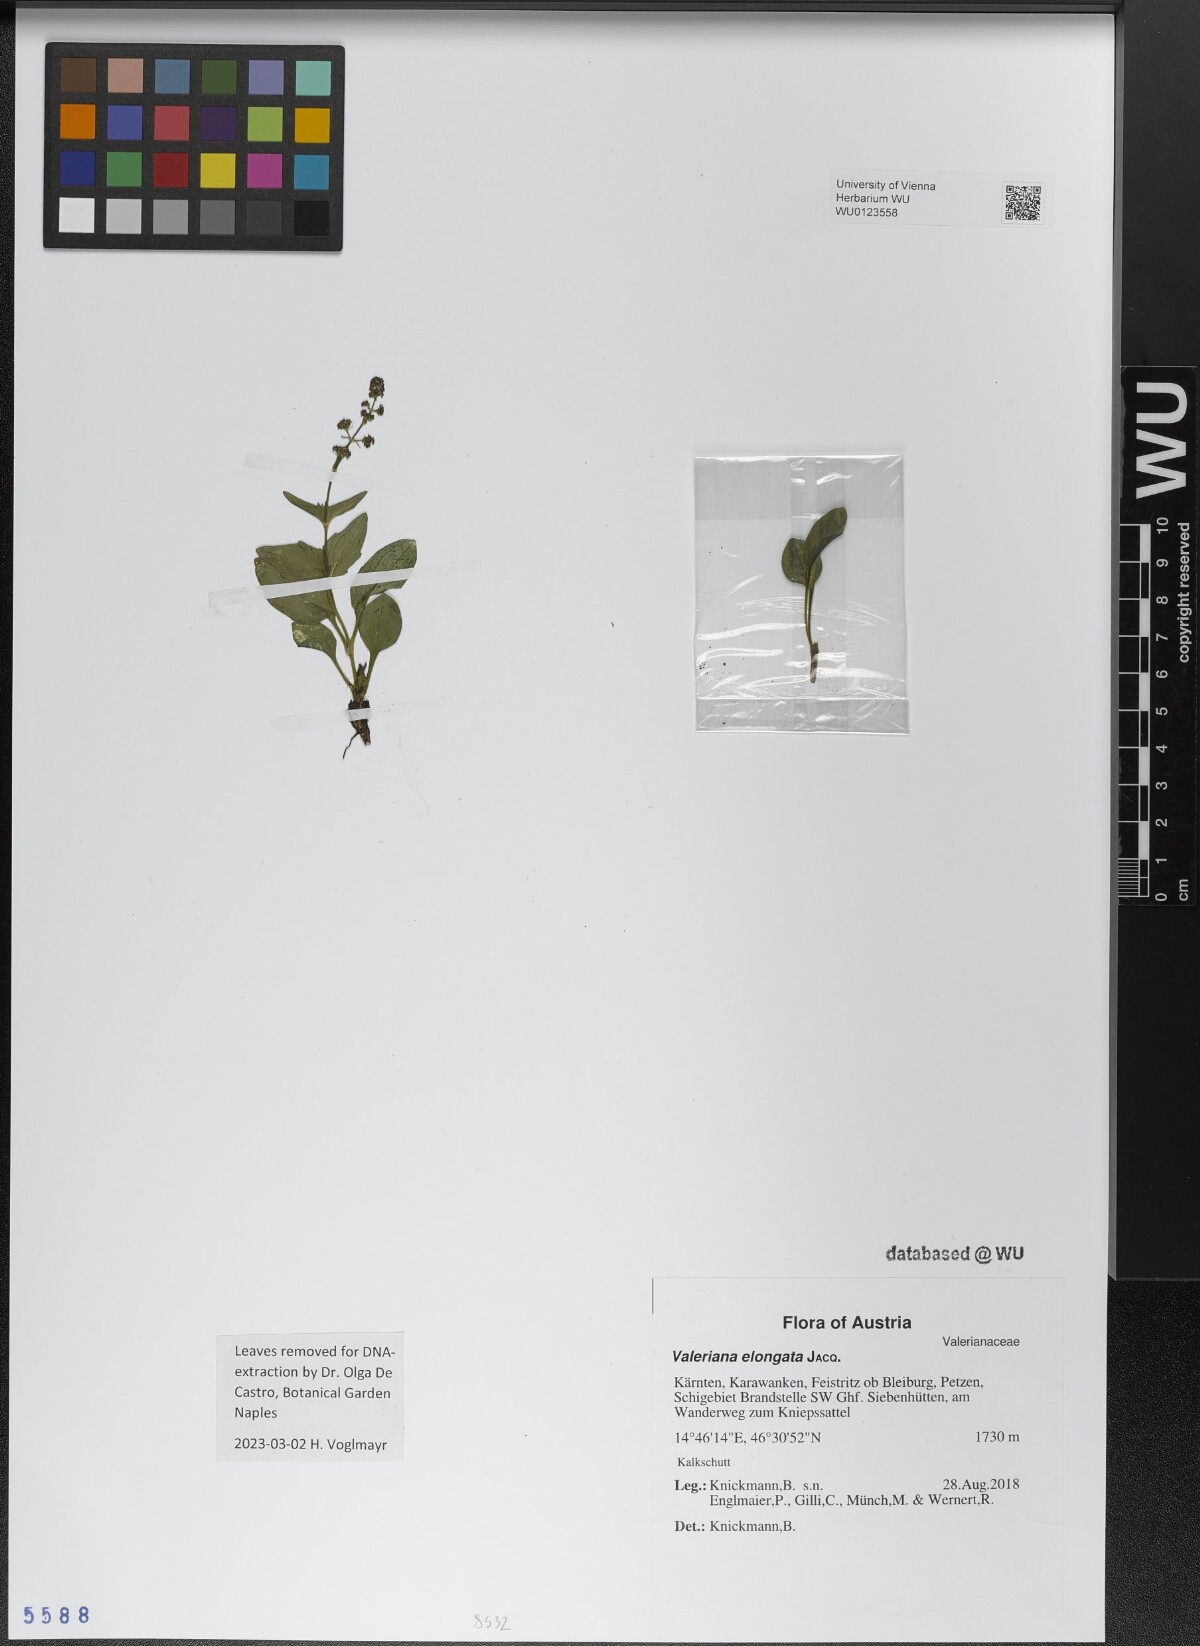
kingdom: Plantae
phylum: Tracheophyta
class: Magnoliopsida
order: Dipsacales
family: Caprifoliaceae
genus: Valeriana
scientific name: Valeriana elongata
